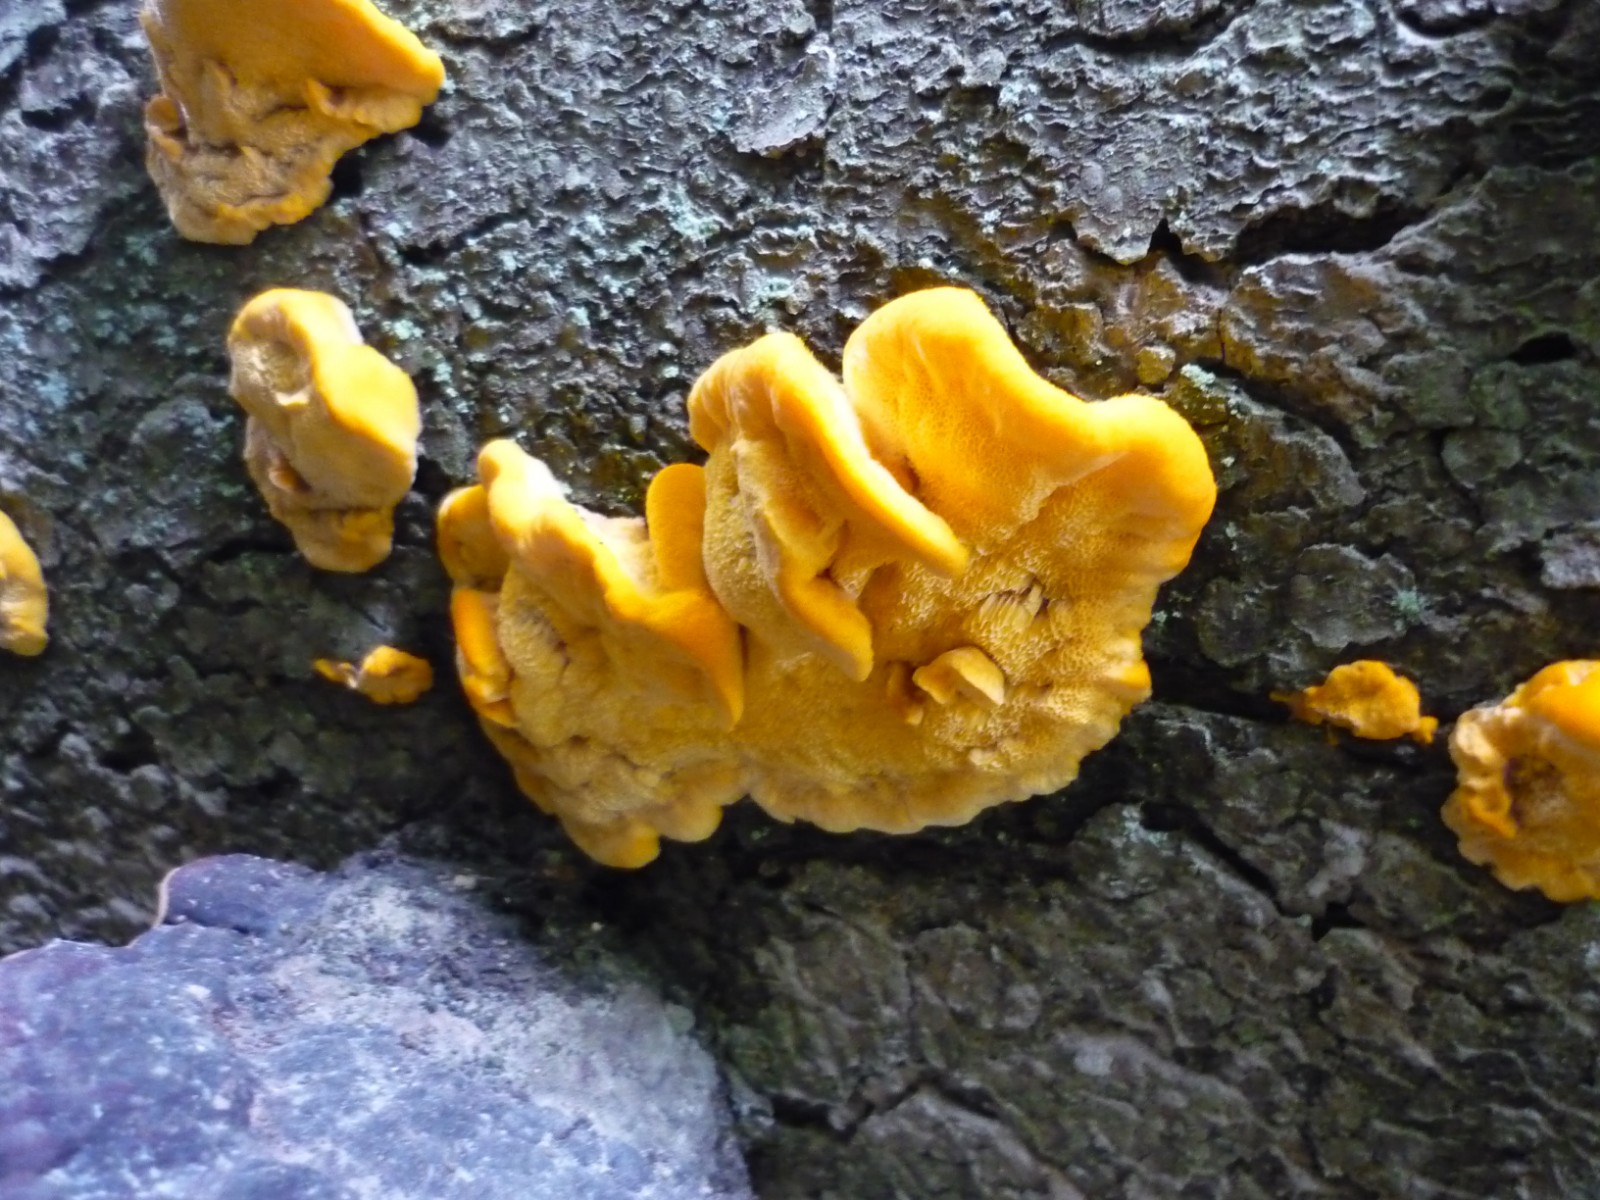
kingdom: Fungi
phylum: Basidiomycota
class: Agaricomycetes
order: Polyporales
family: Pycnoporellaceae
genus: Pycnoporellus
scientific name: Pycnoporellus fulgens
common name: flammeporesvamp
